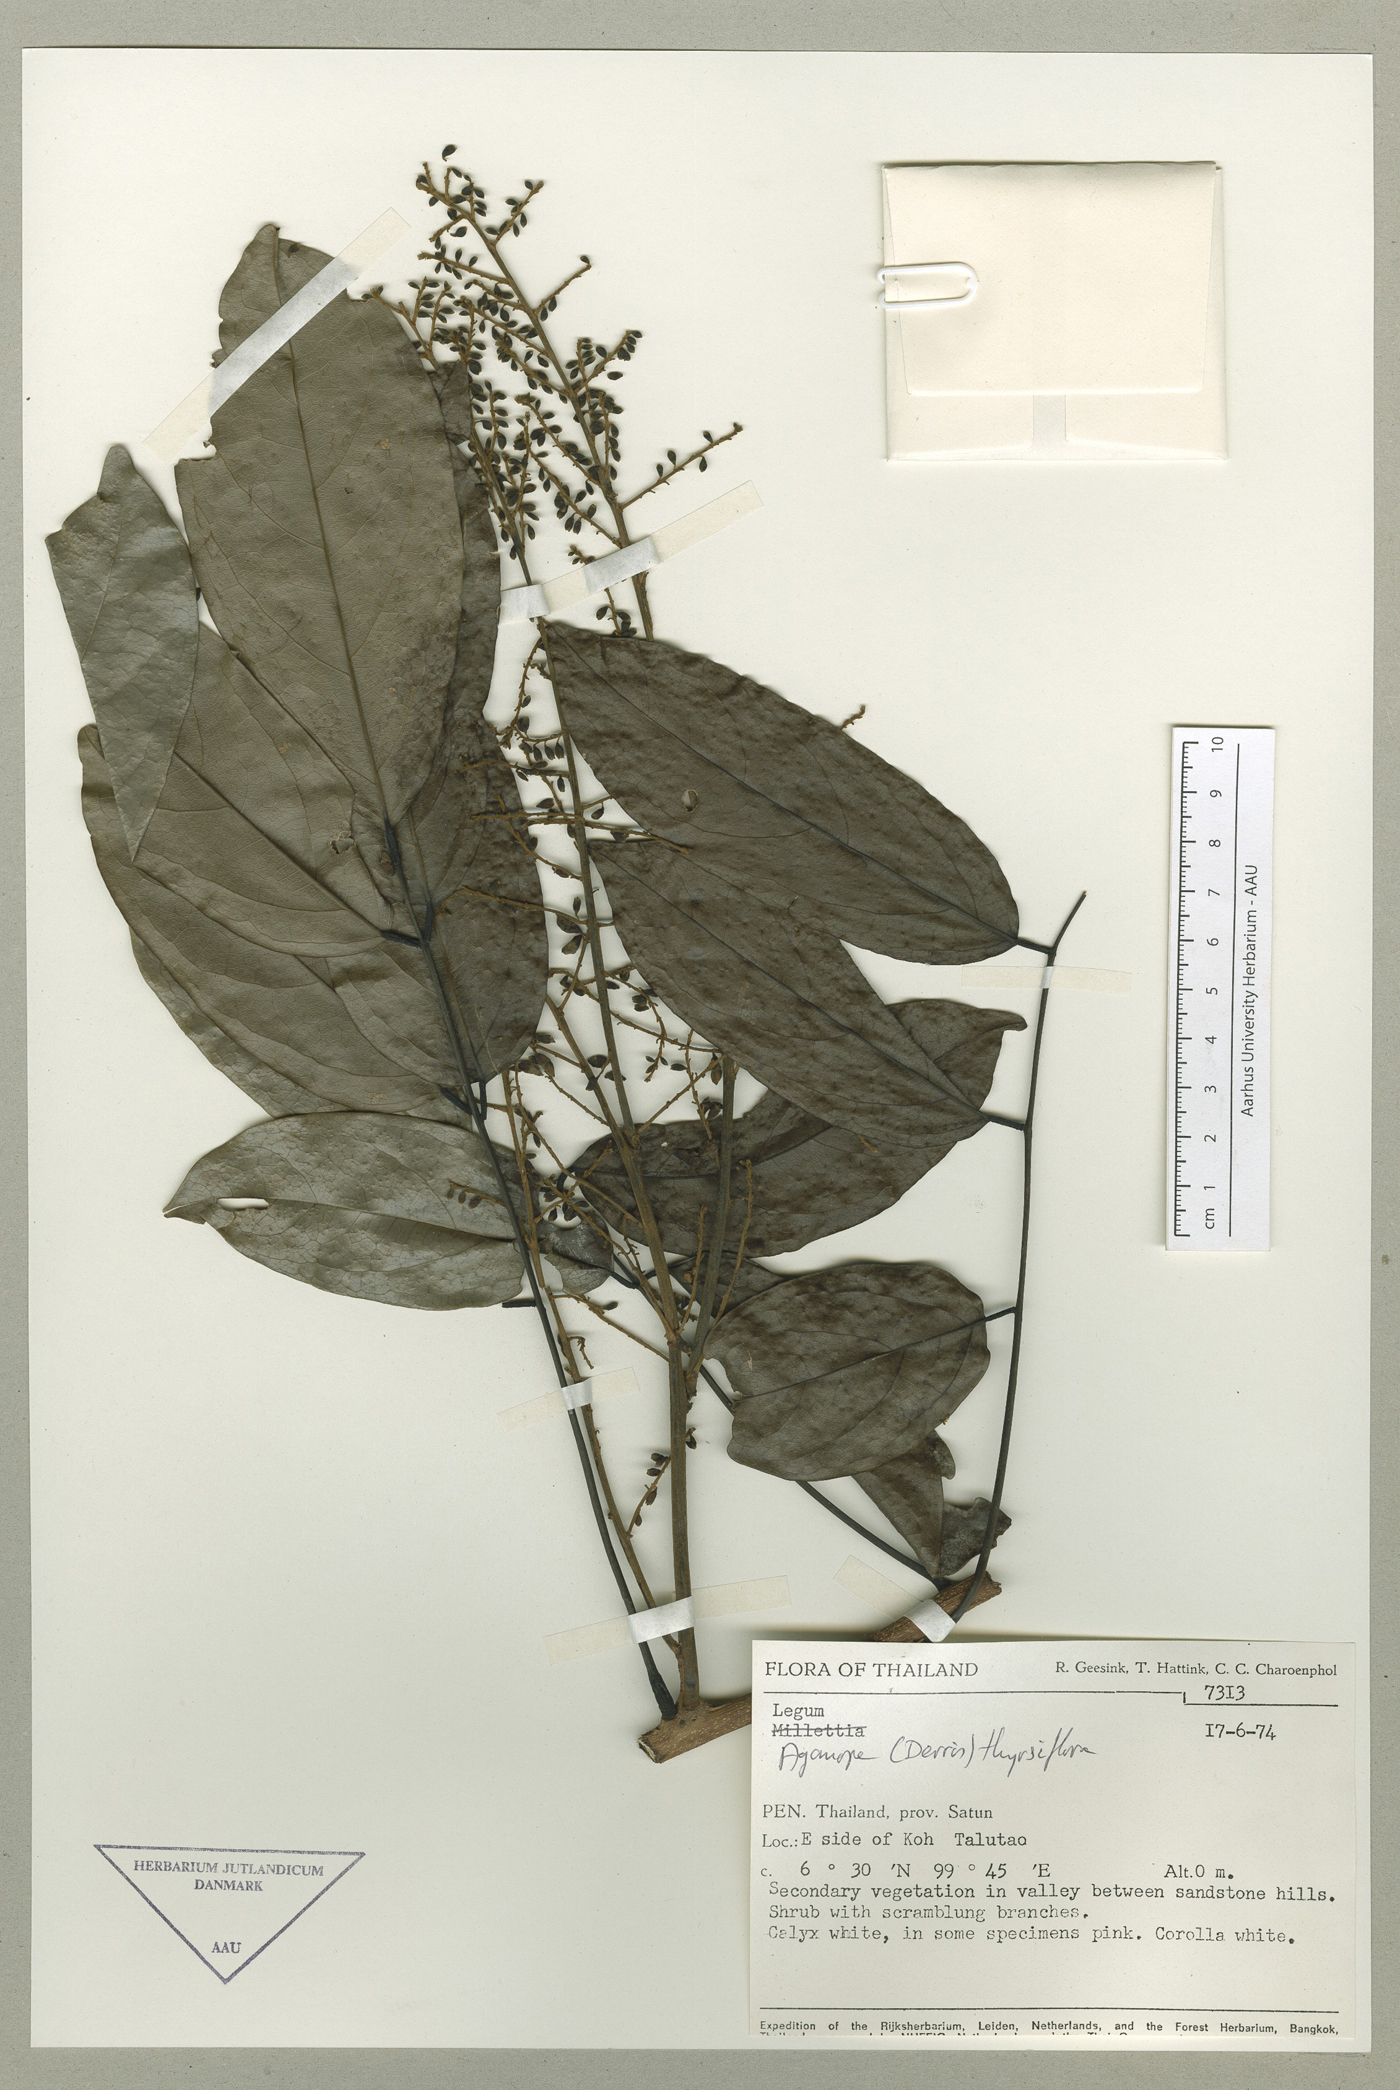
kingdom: Plantae
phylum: Tracheophyta
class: Magnoliopsida
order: Fabales
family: Fabaceae
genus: Aganope
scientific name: Aganope thyrsiflora
